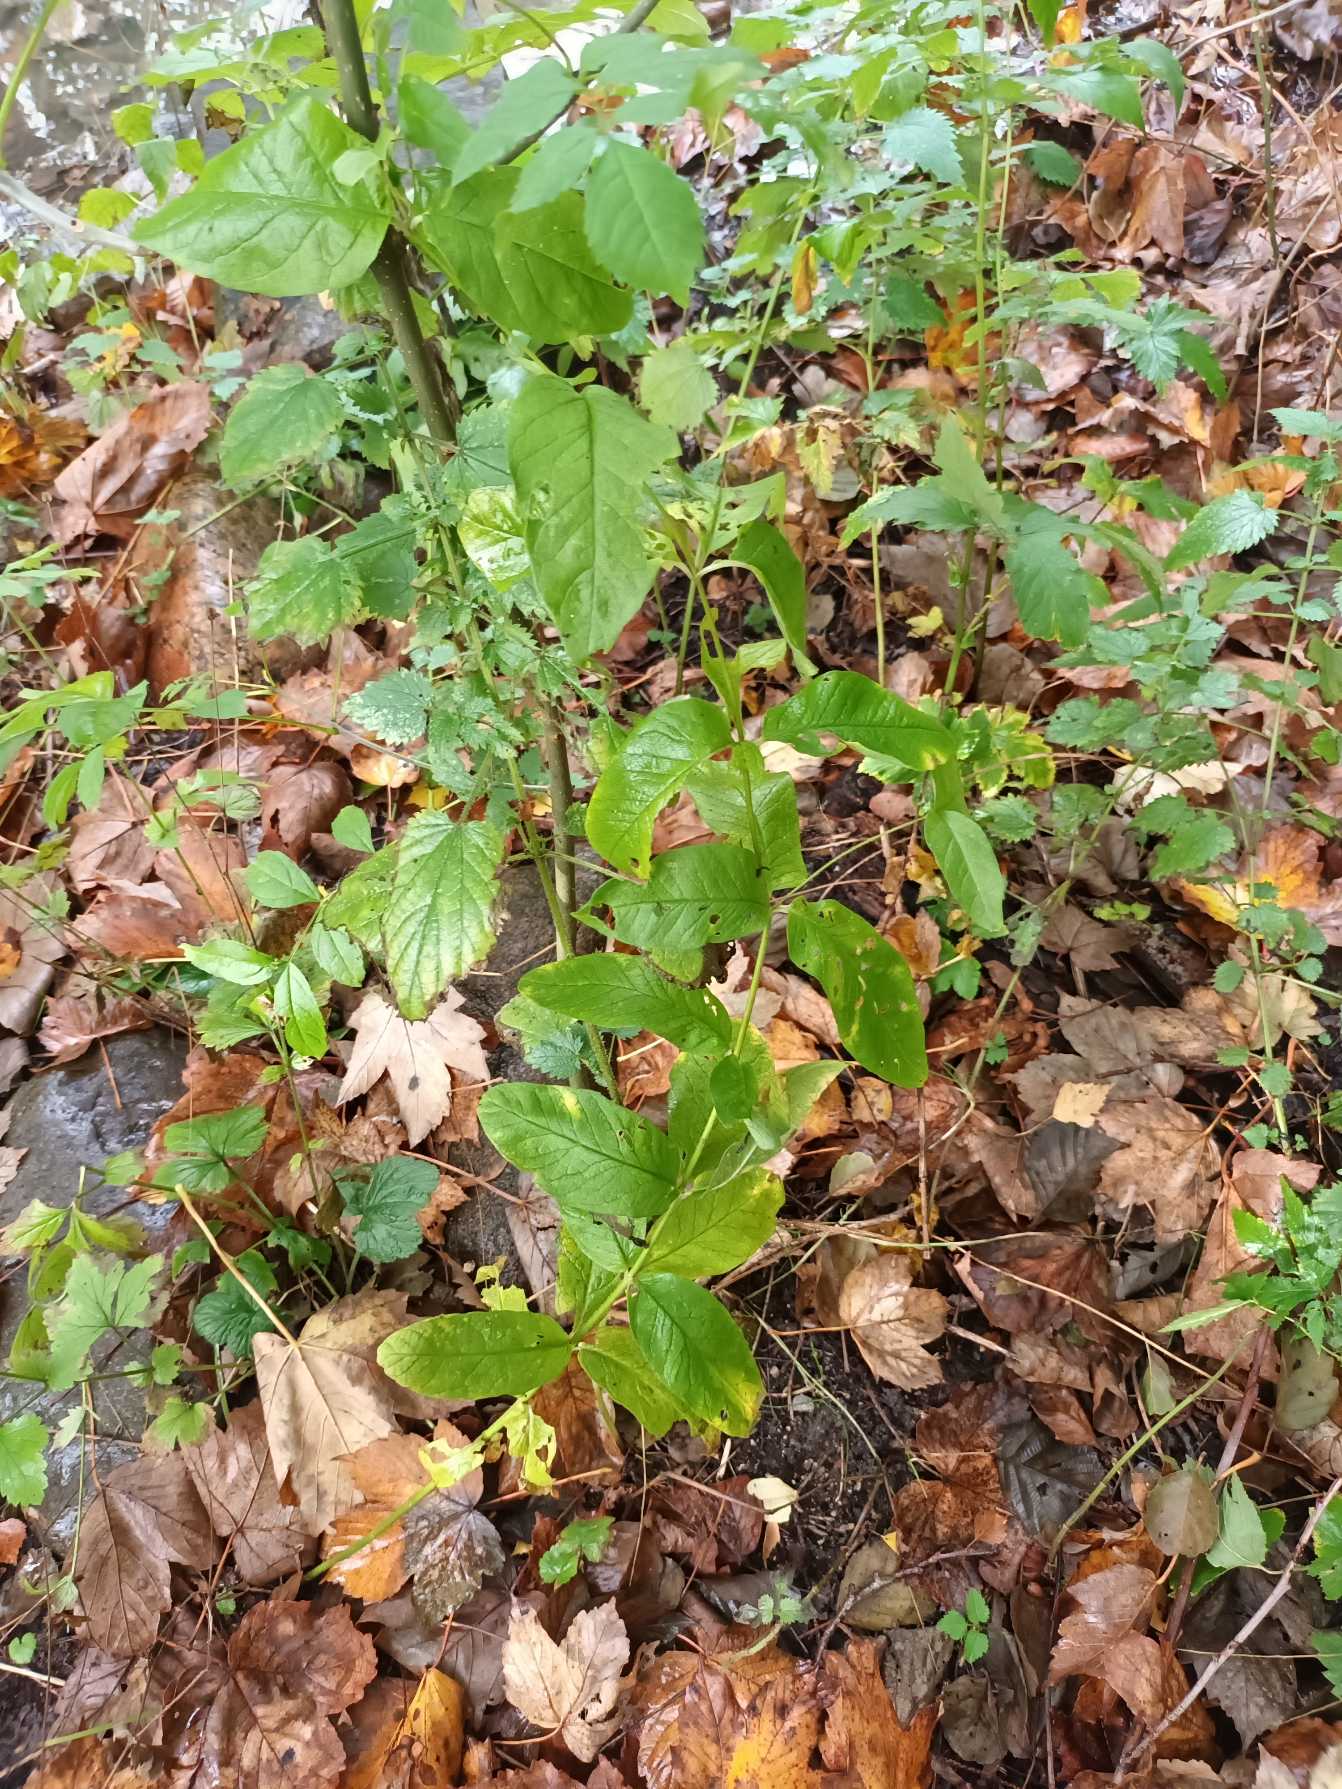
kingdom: Plantae
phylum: Tracheophyta
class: Magnoliopsida
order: Ericales
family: Primulaceae
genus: Lysimachia
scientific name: Lysimachia vulgaris
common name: Almindelig fredløs
